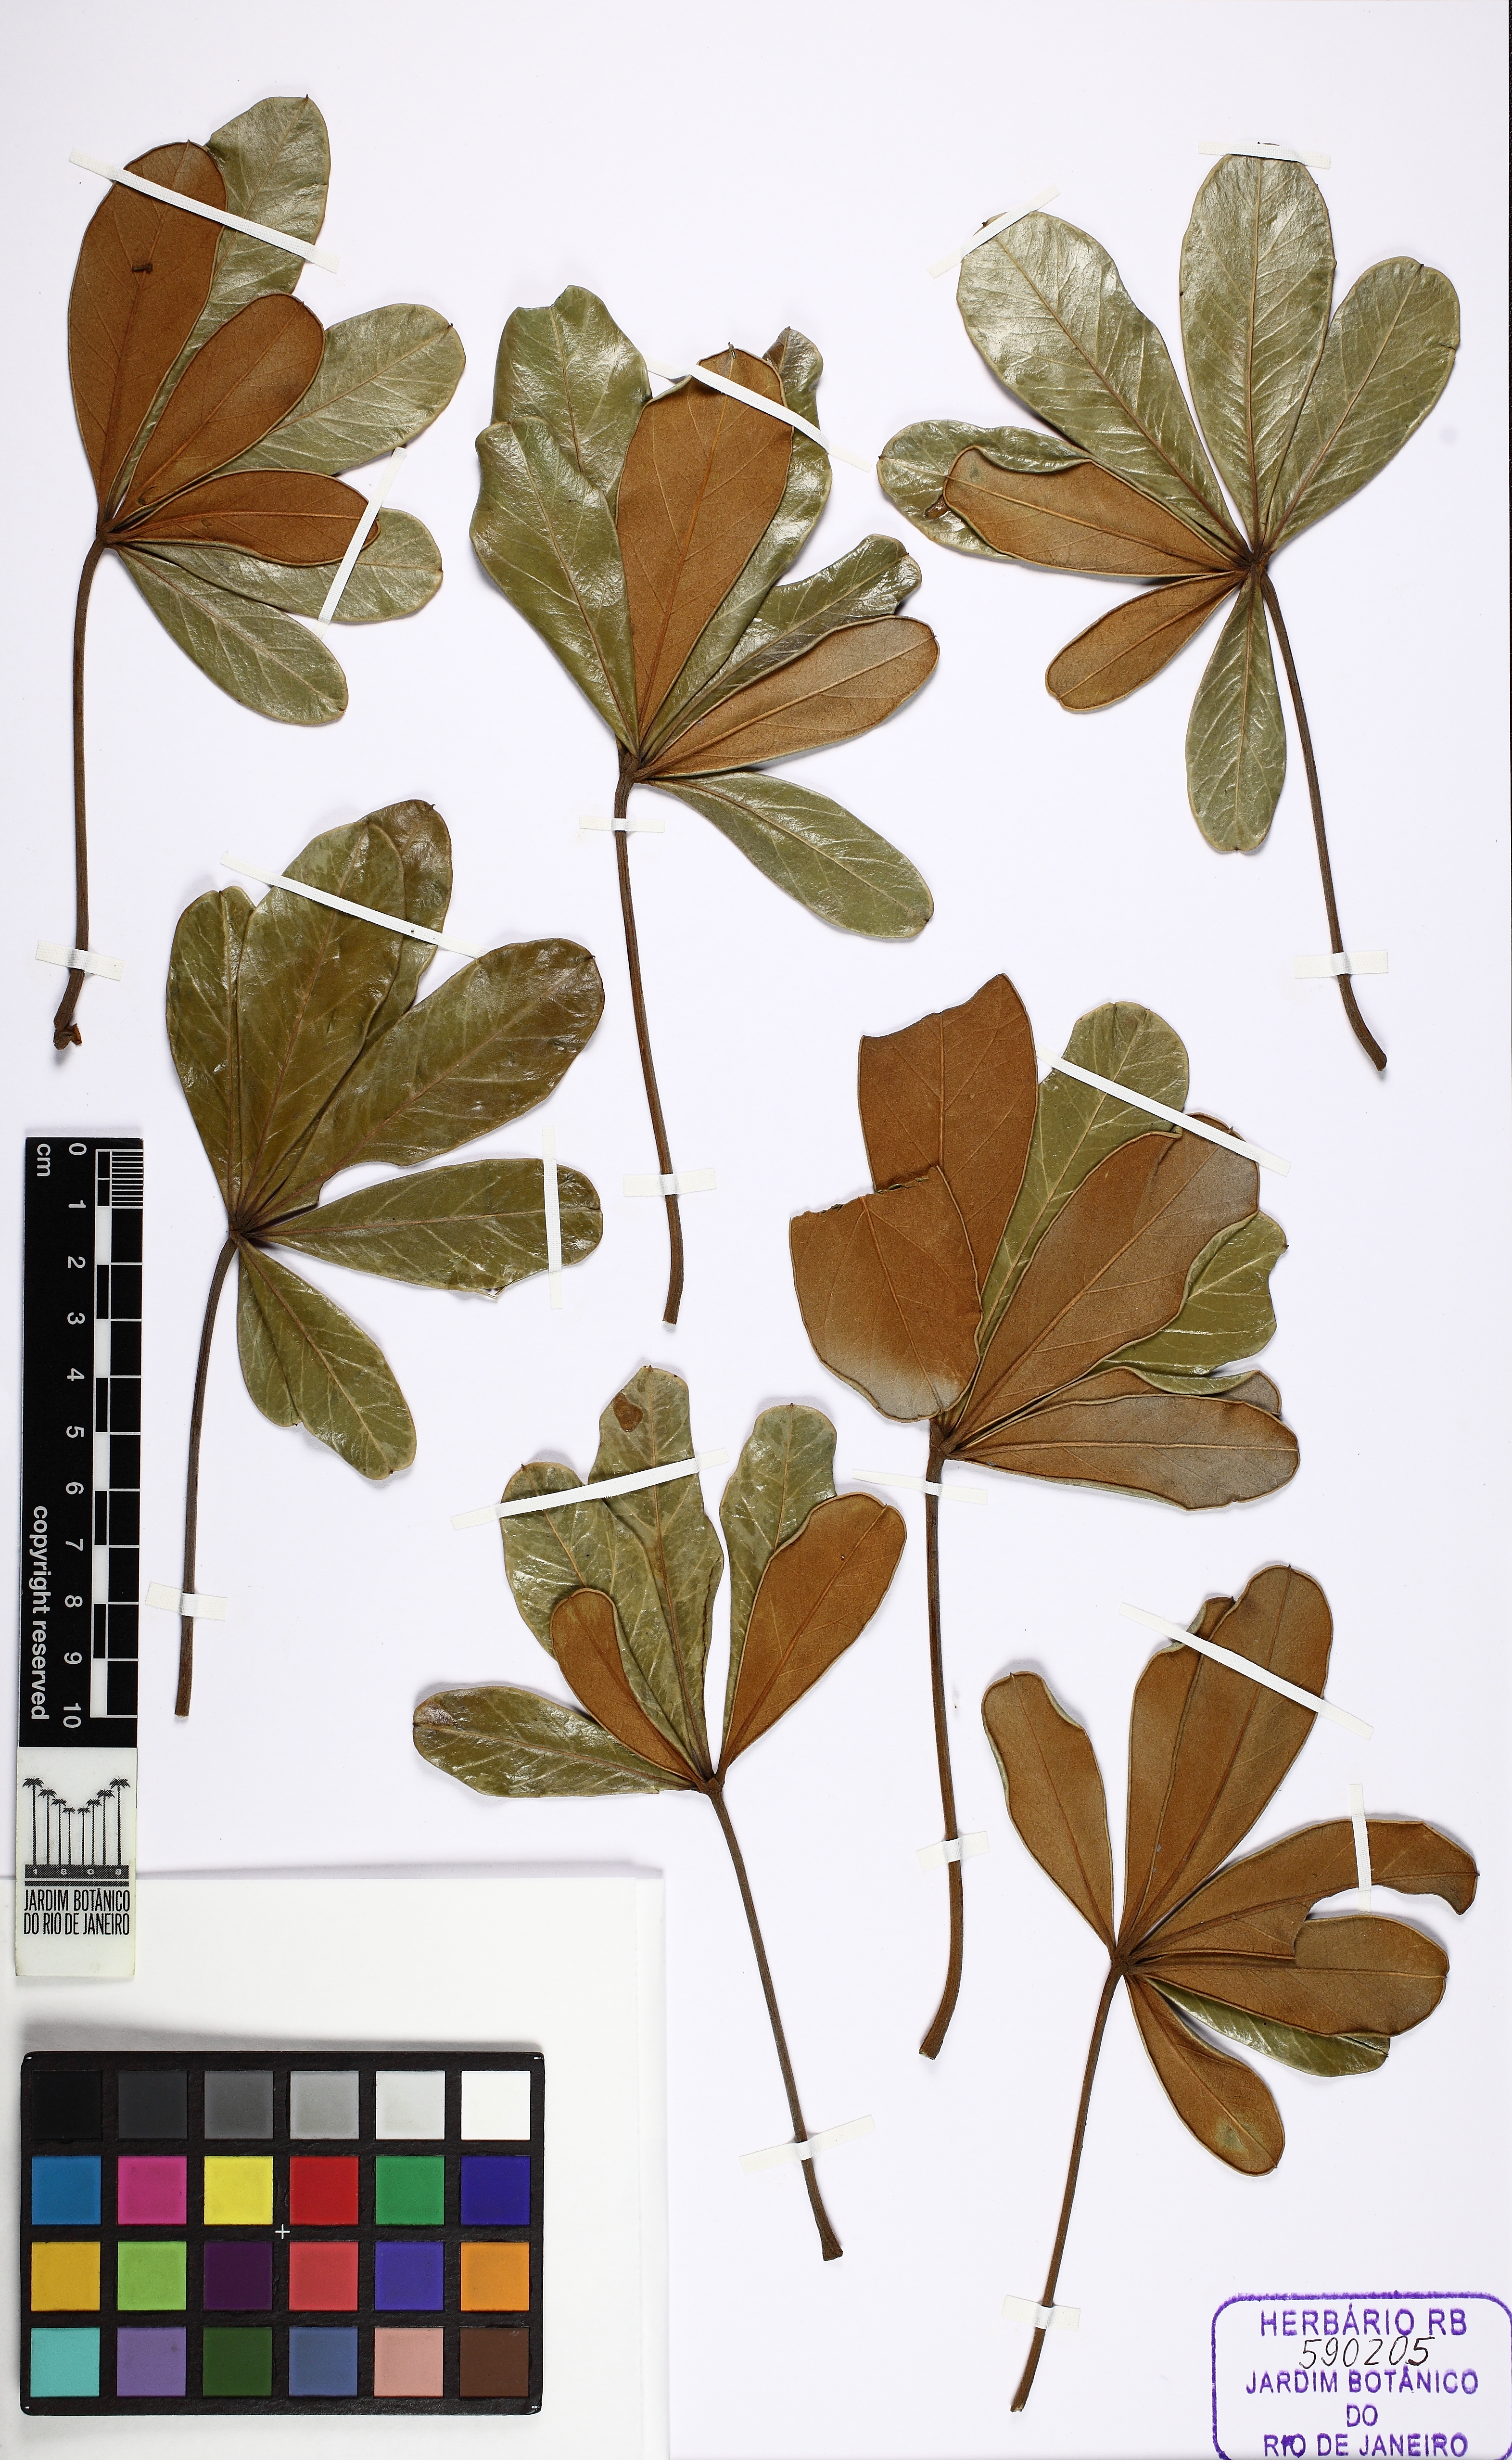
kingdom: Plantae
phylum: Tracheophyta
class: Magnoliopsida
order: Apiales
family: Araliaceae
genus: Didymopanax
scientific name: Didymopanax vinosus
